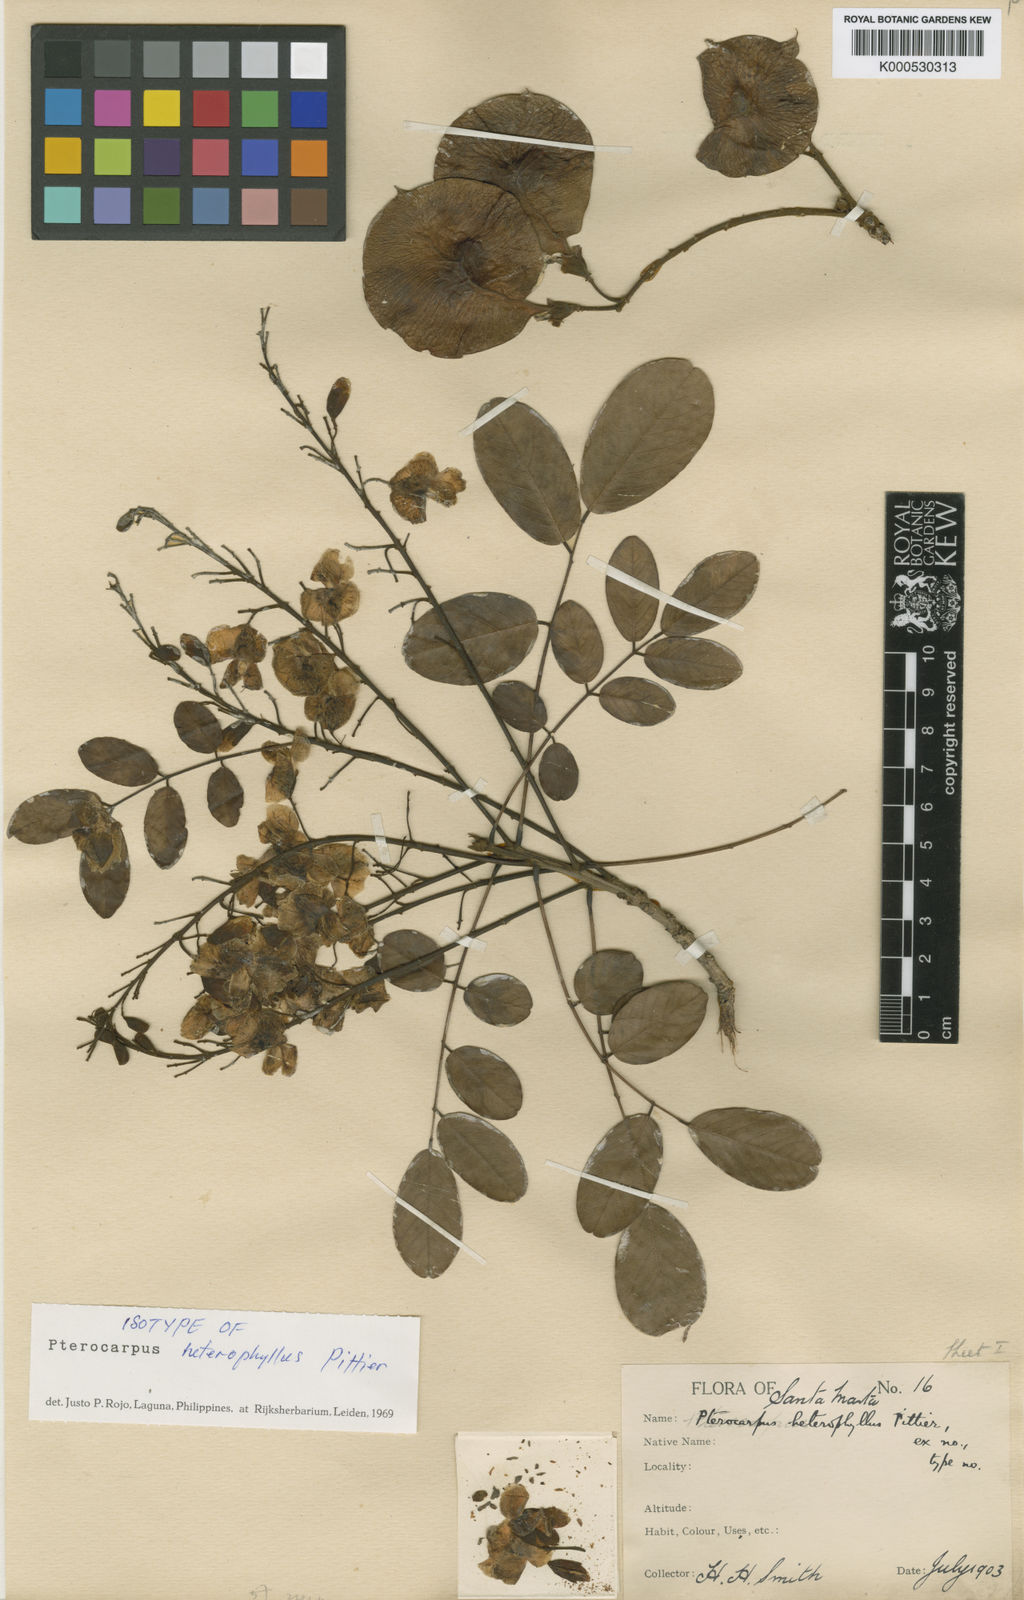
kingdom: Plantae
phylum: Tracheophyta
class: Magnoliopsida
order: Fabales
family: Fabaceae
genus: Pterocarpus
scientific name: Pterocarpus acapulcensis
